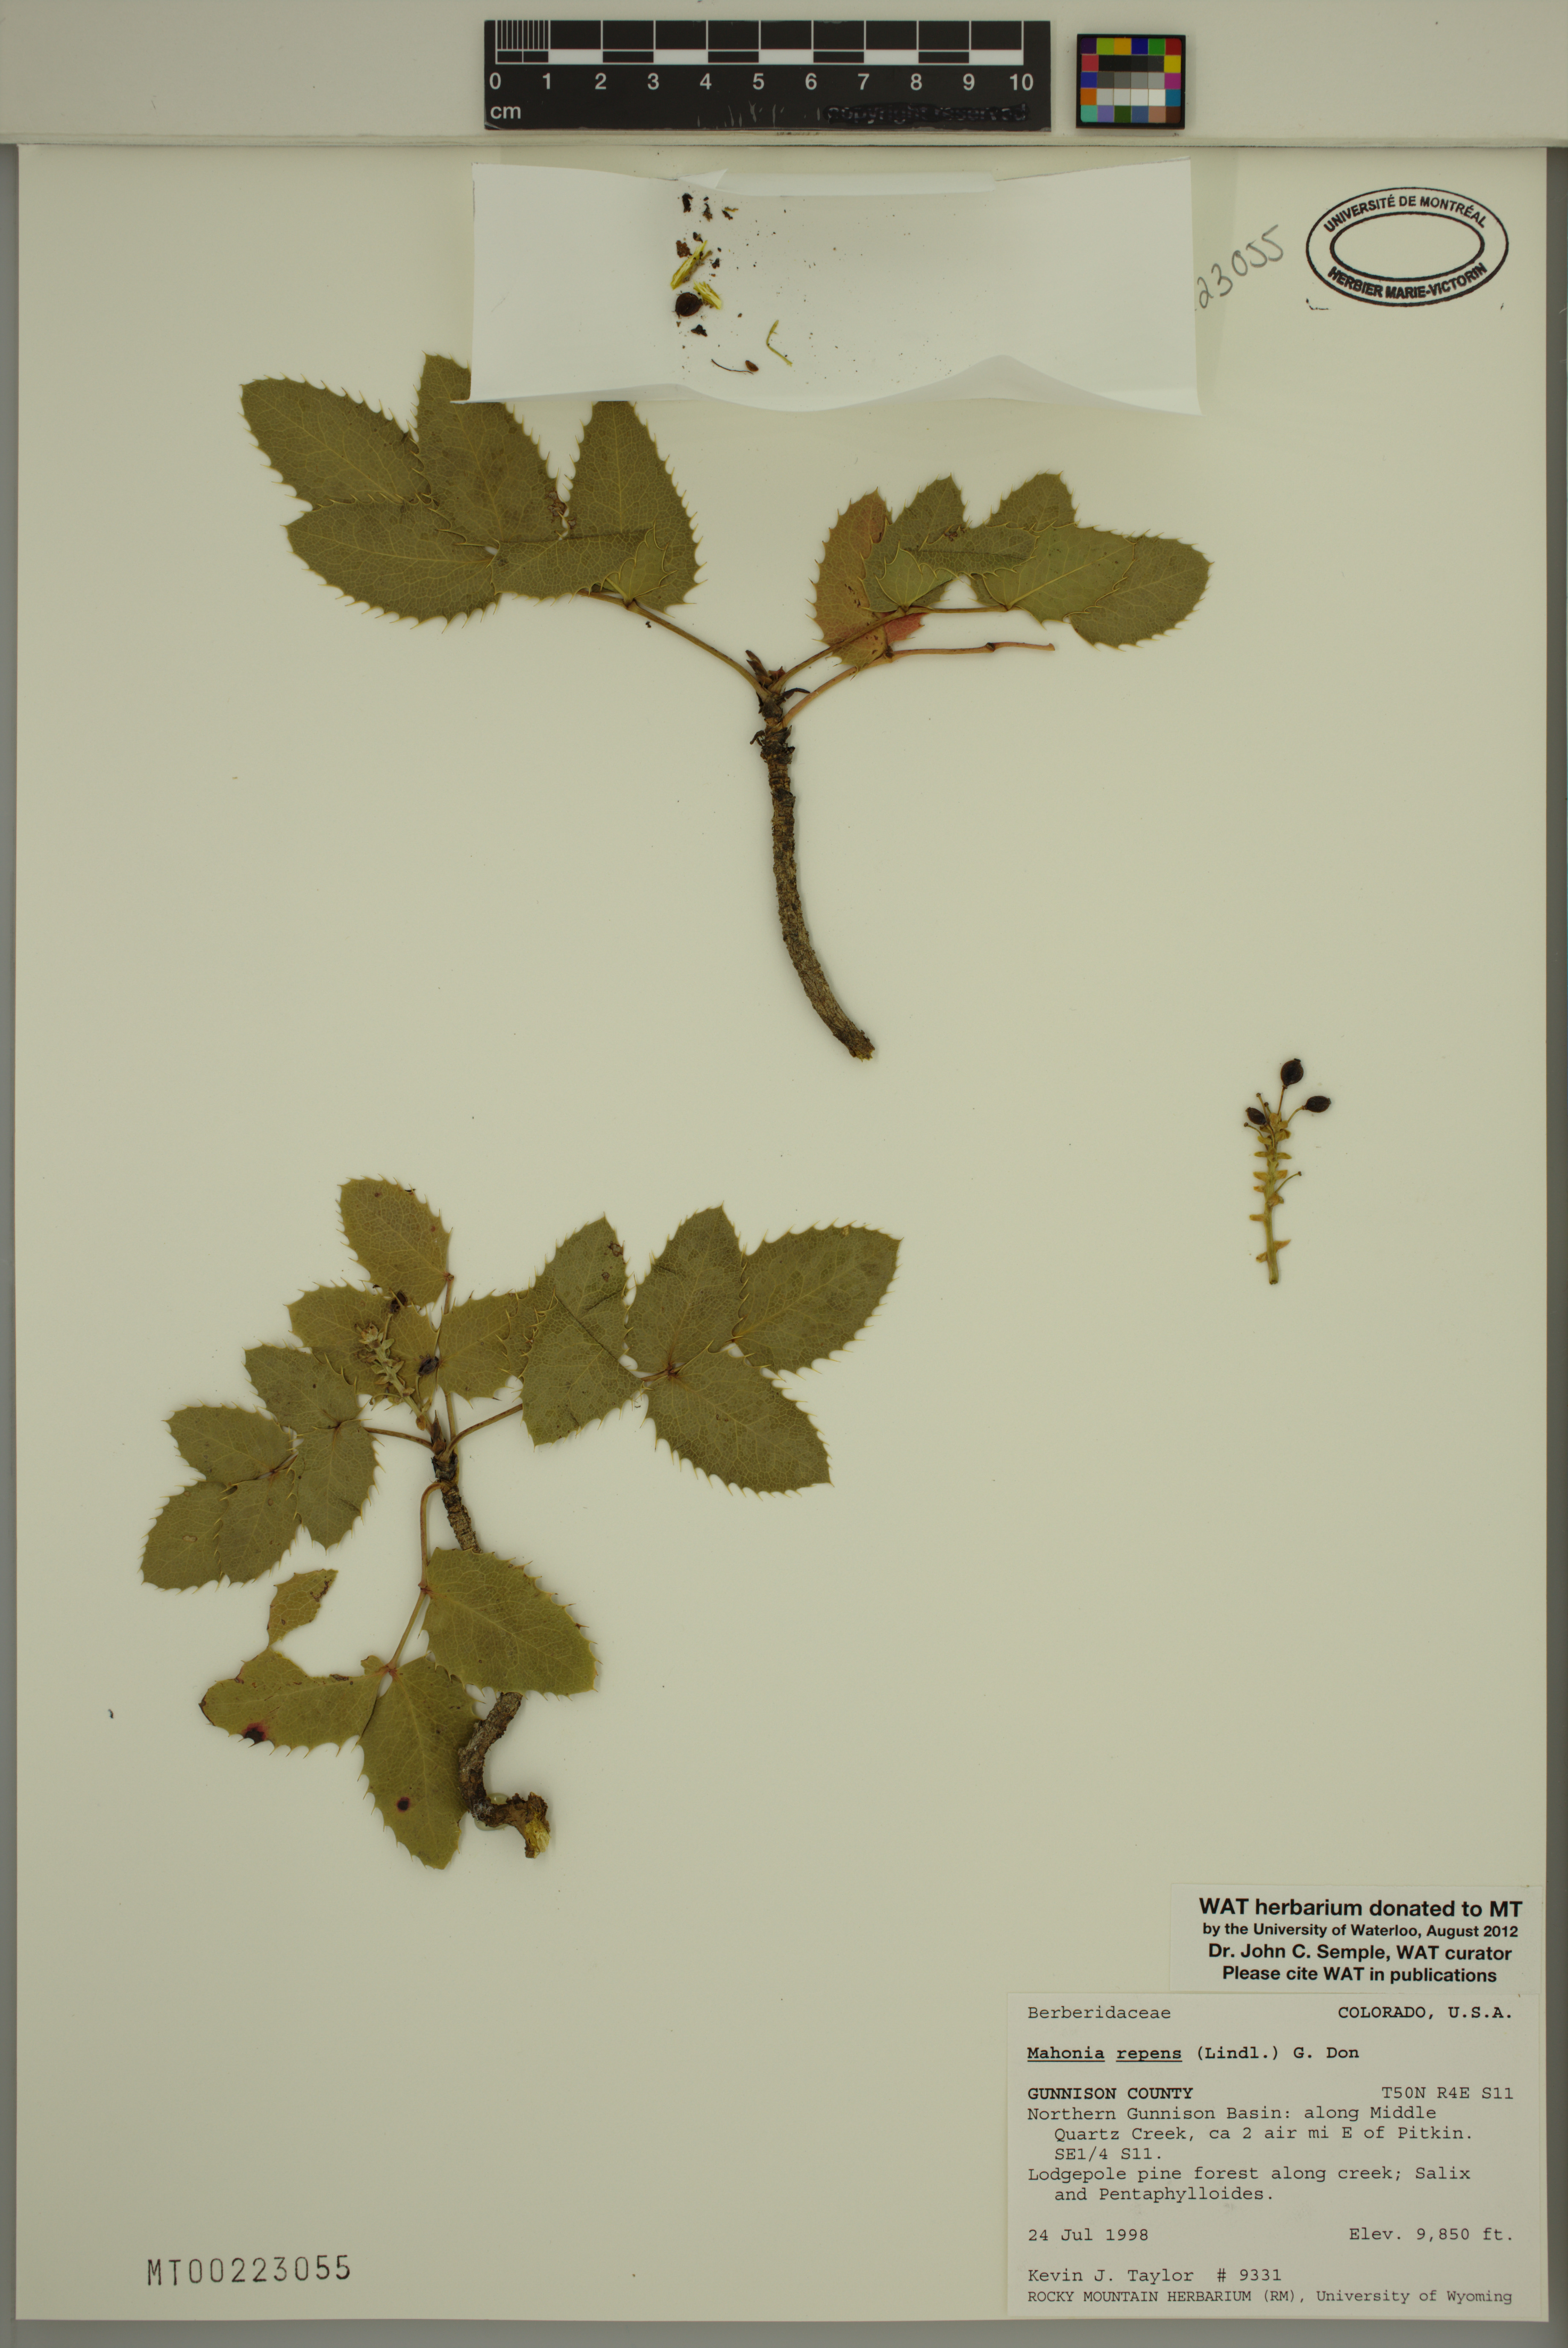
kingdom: Plantae
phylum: Tracheophyta
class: Magnoliopsida
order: Ranunculales
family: Berberidaceae
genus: Mahonia
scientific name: Mahonia repens
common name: Creeping oregon-grape
